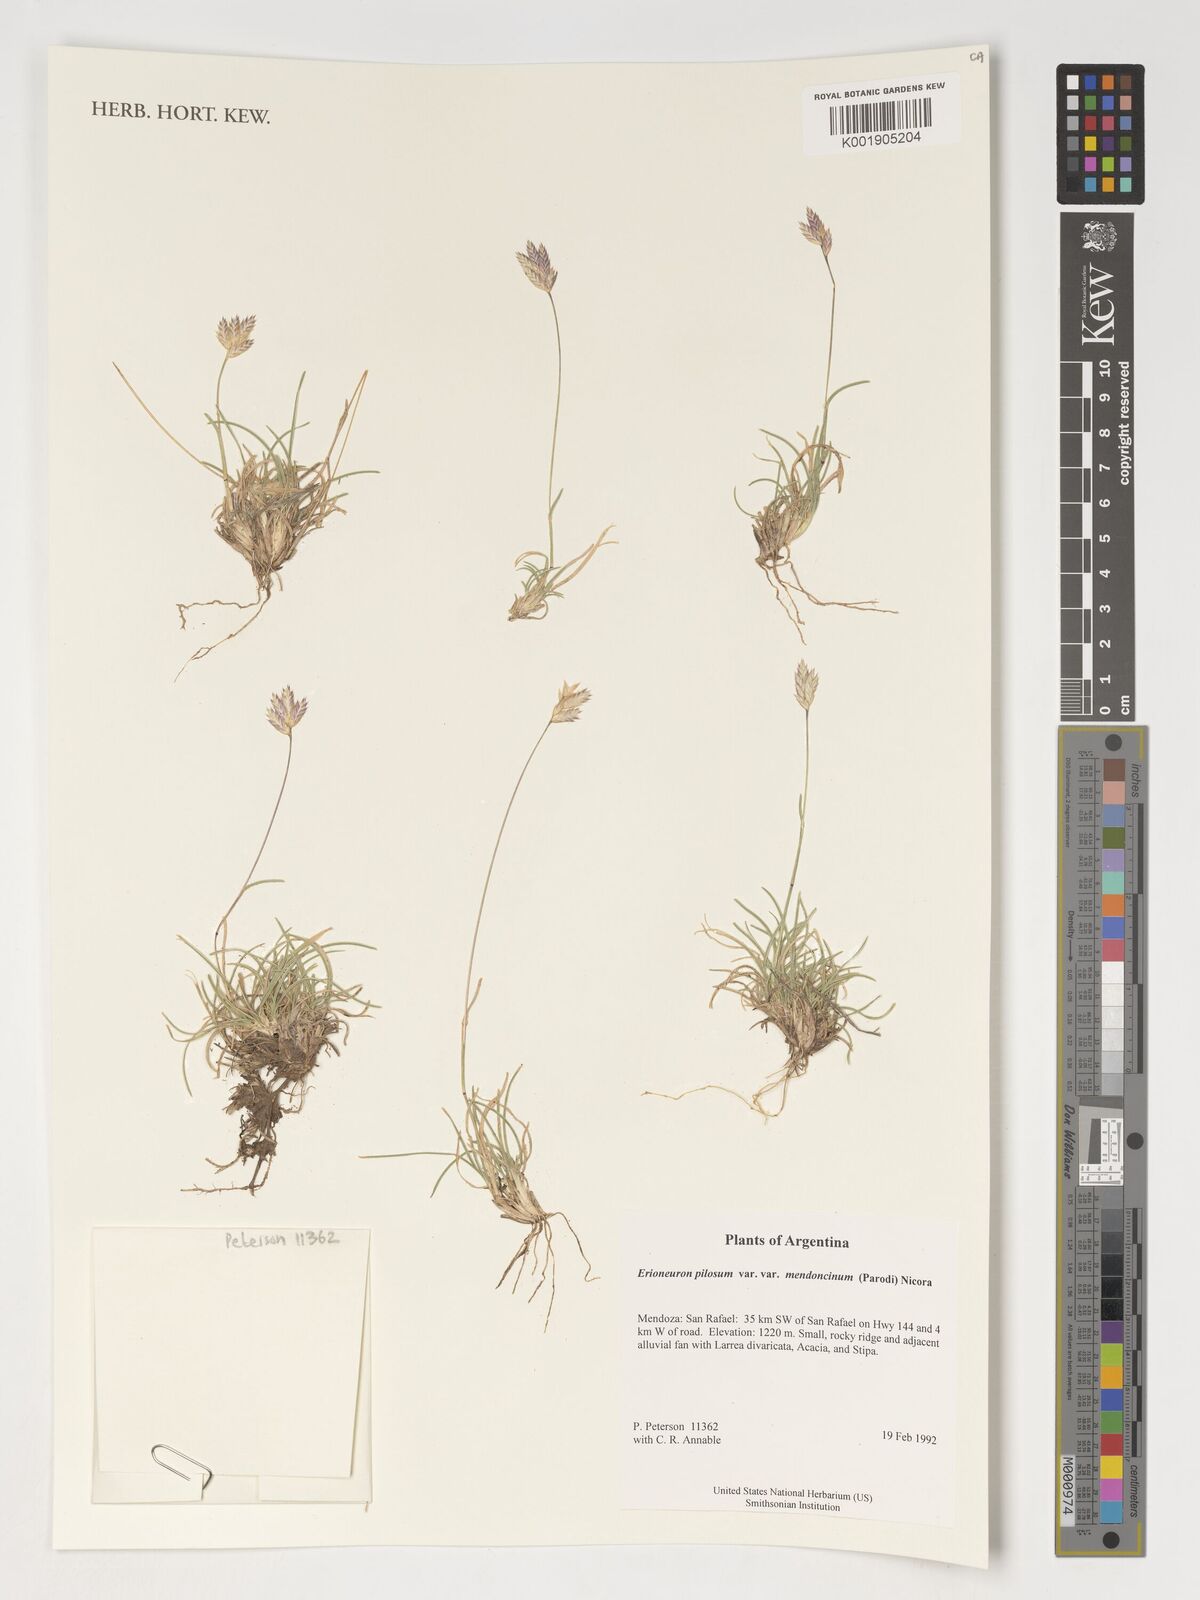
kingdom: Plantae
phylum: Tracheophyta
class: Liliopsida
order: Poales
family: Poaceae
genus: Erioneuron
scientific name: Erioneuron pilosum
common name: Hairy woolly grass
